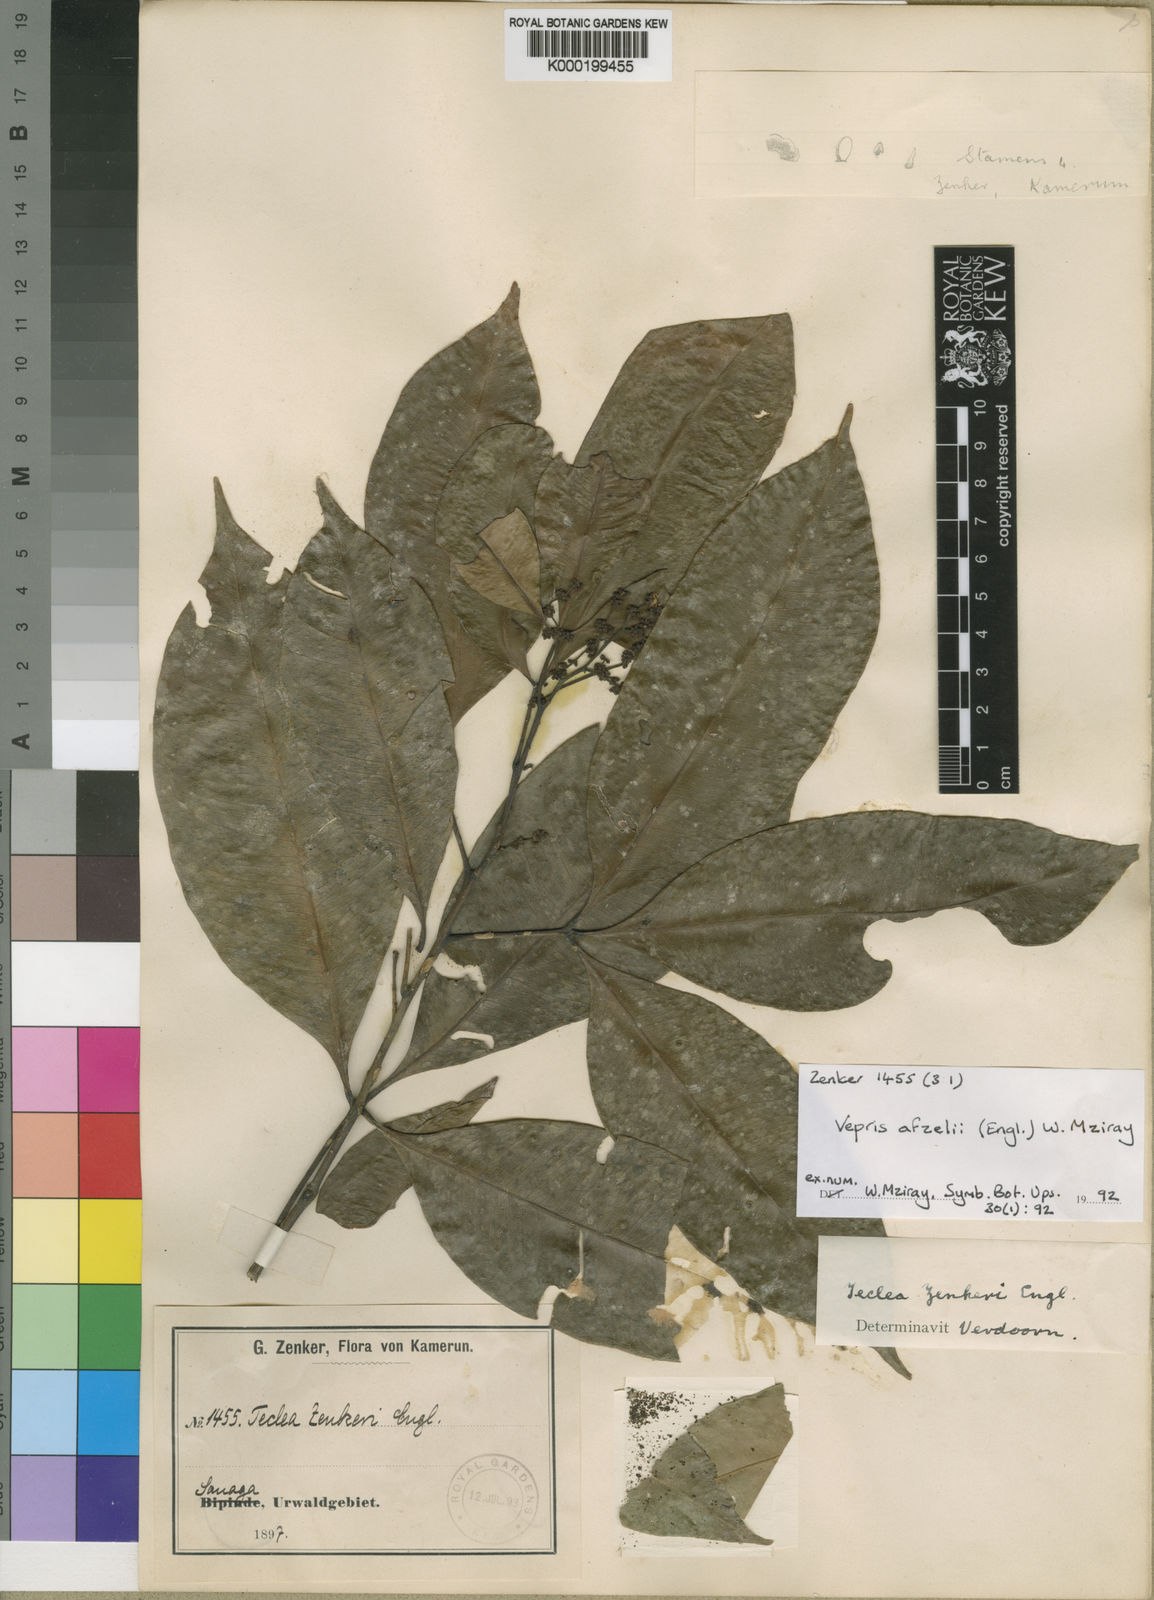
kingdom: Plantae
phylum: Tracheophyta
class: Magnoliopsida
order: Sapindales
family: Rutaceae
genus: Vepris
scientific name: Vepris afzelii
